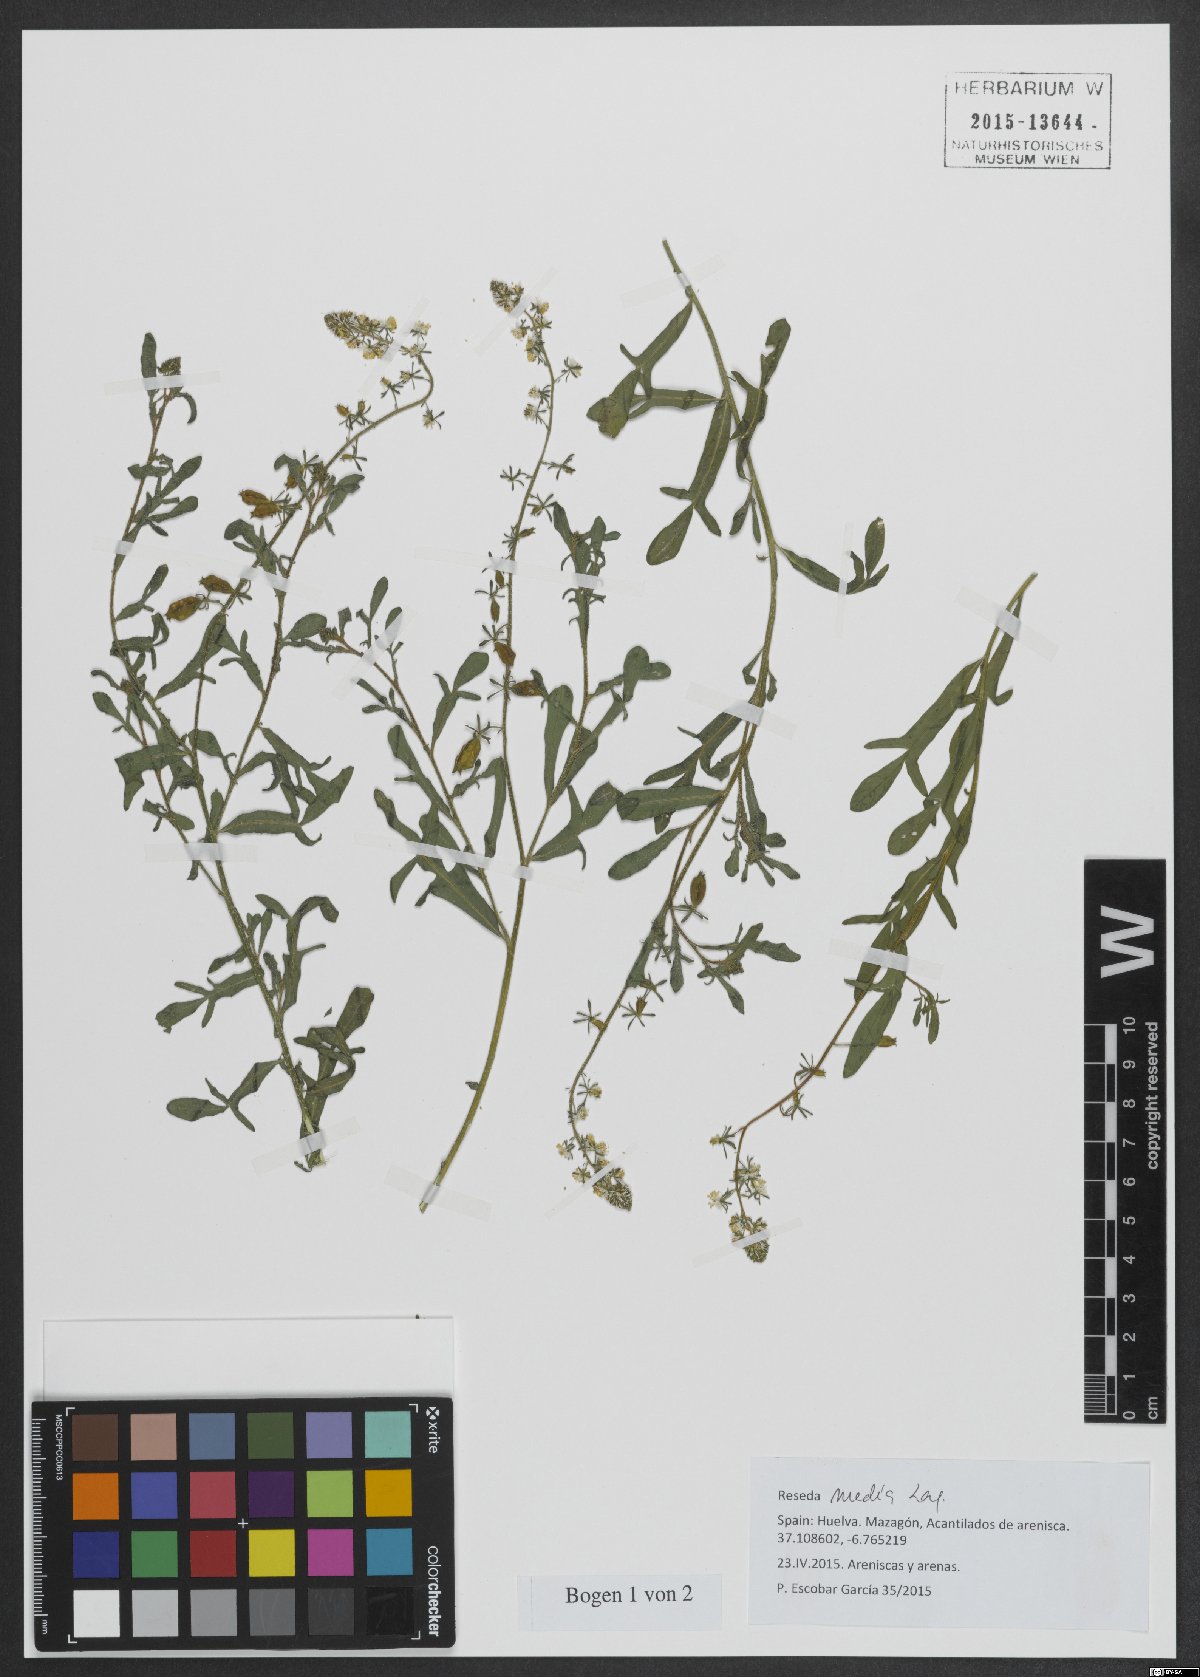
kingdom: Plantae
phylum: Tracheophyta
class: Magnoliopsida
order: Brassicales
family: Resedaceae
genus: Reseda
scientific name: Reseda media
